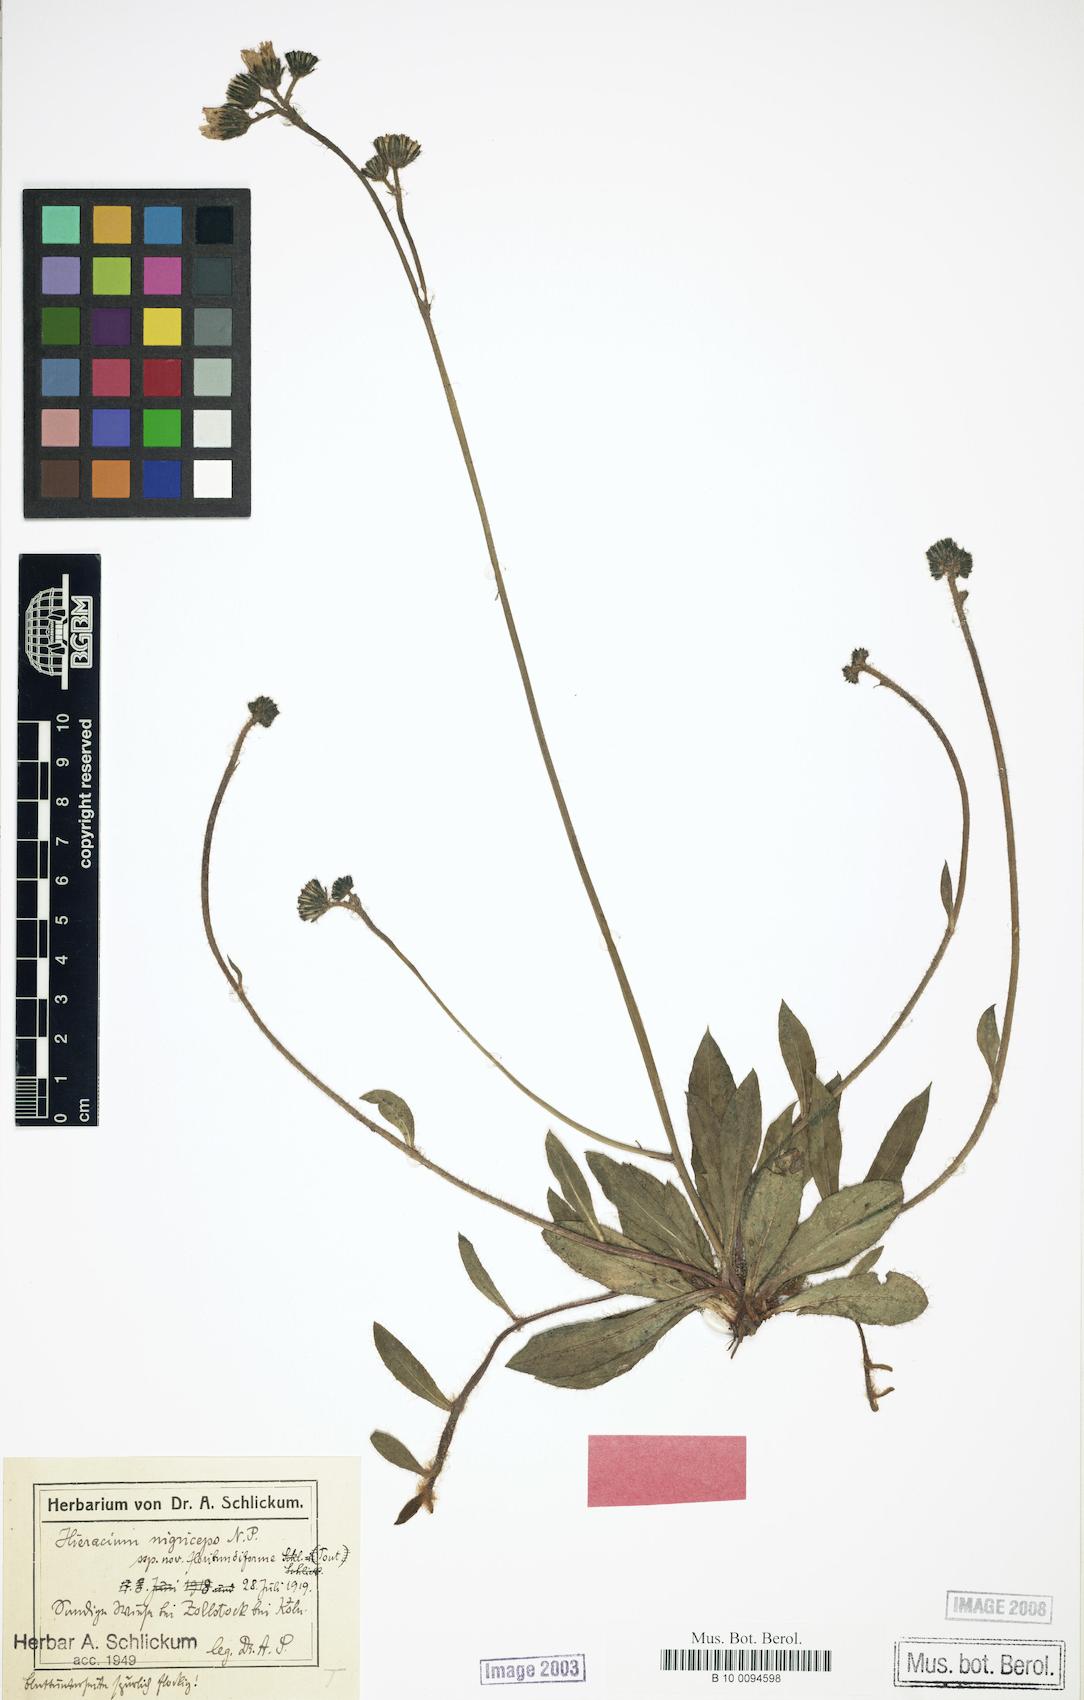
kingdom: Plantae
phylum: Tracheophyta
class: Magnoliopsida
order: Asterales
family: Asteraceae
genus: Hieracium
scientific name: Hieracium
